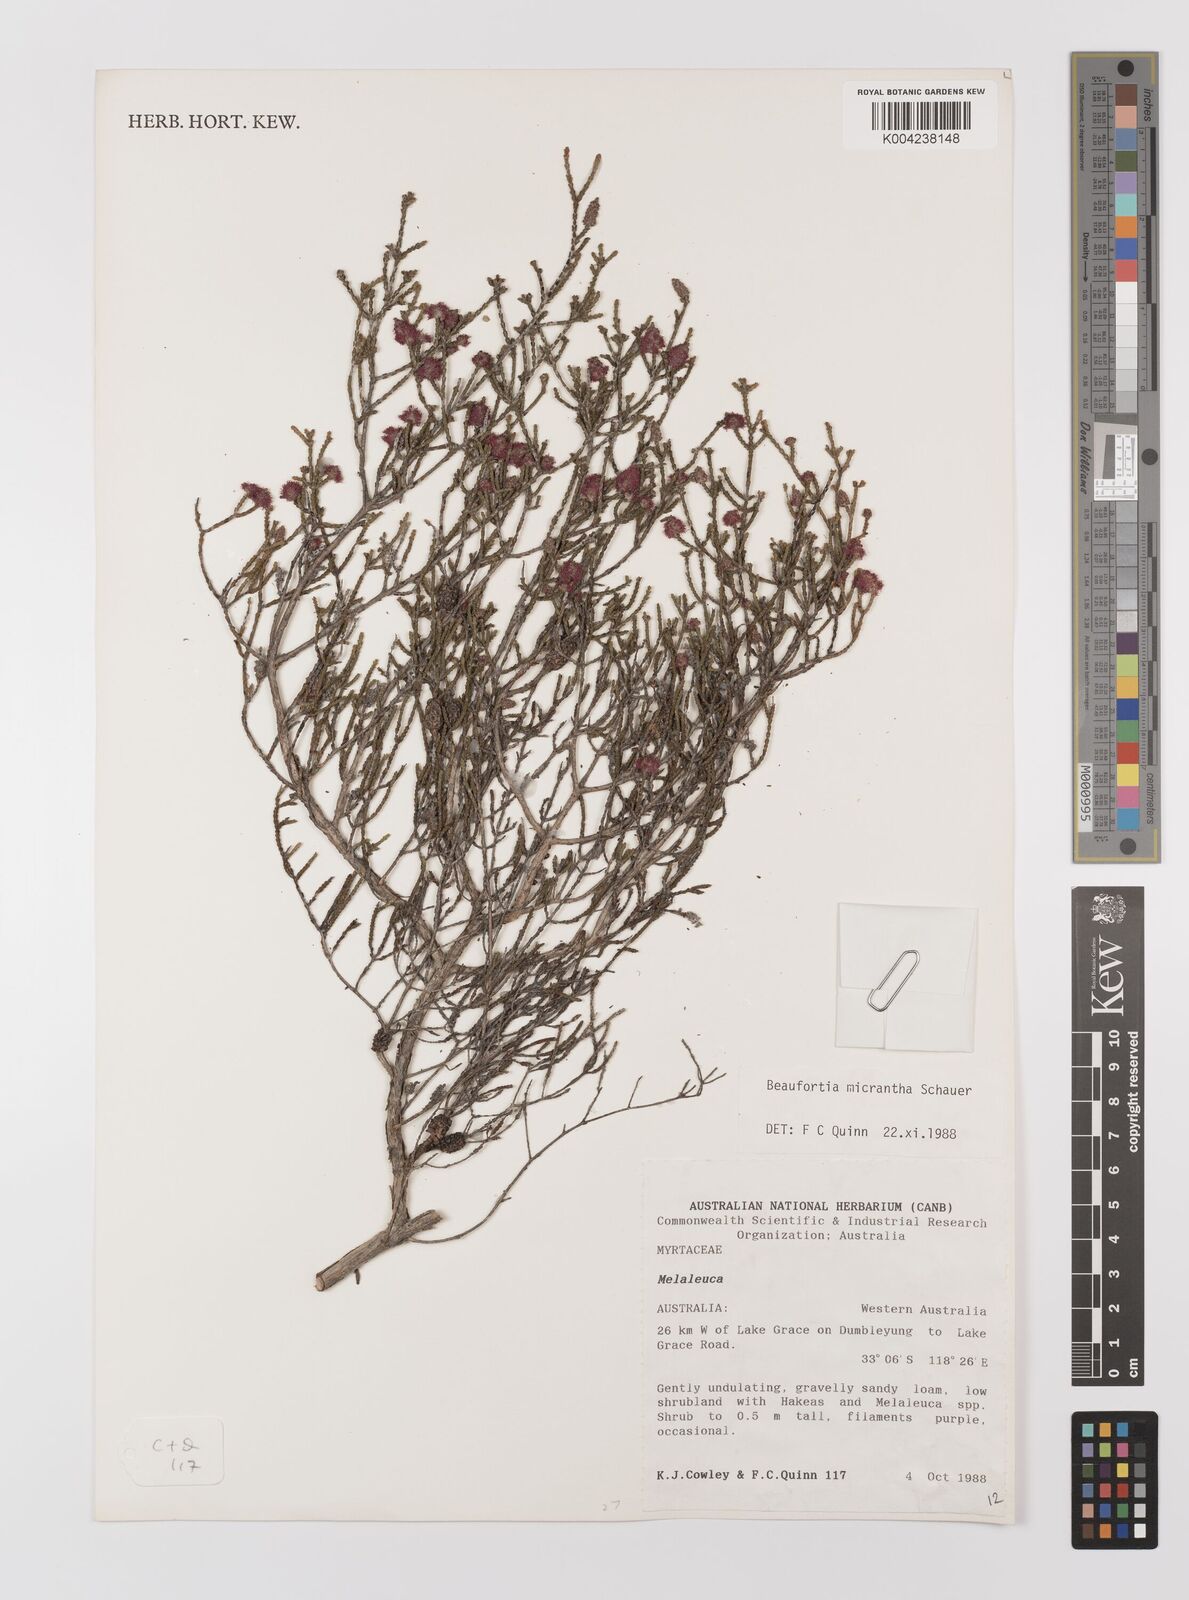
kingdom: Plantae
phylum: Tracheophyta
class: Magnoliopsida
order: Myrtales
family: Myrtaceae
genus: Melaleuca
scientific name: Melaleuca micrantha
